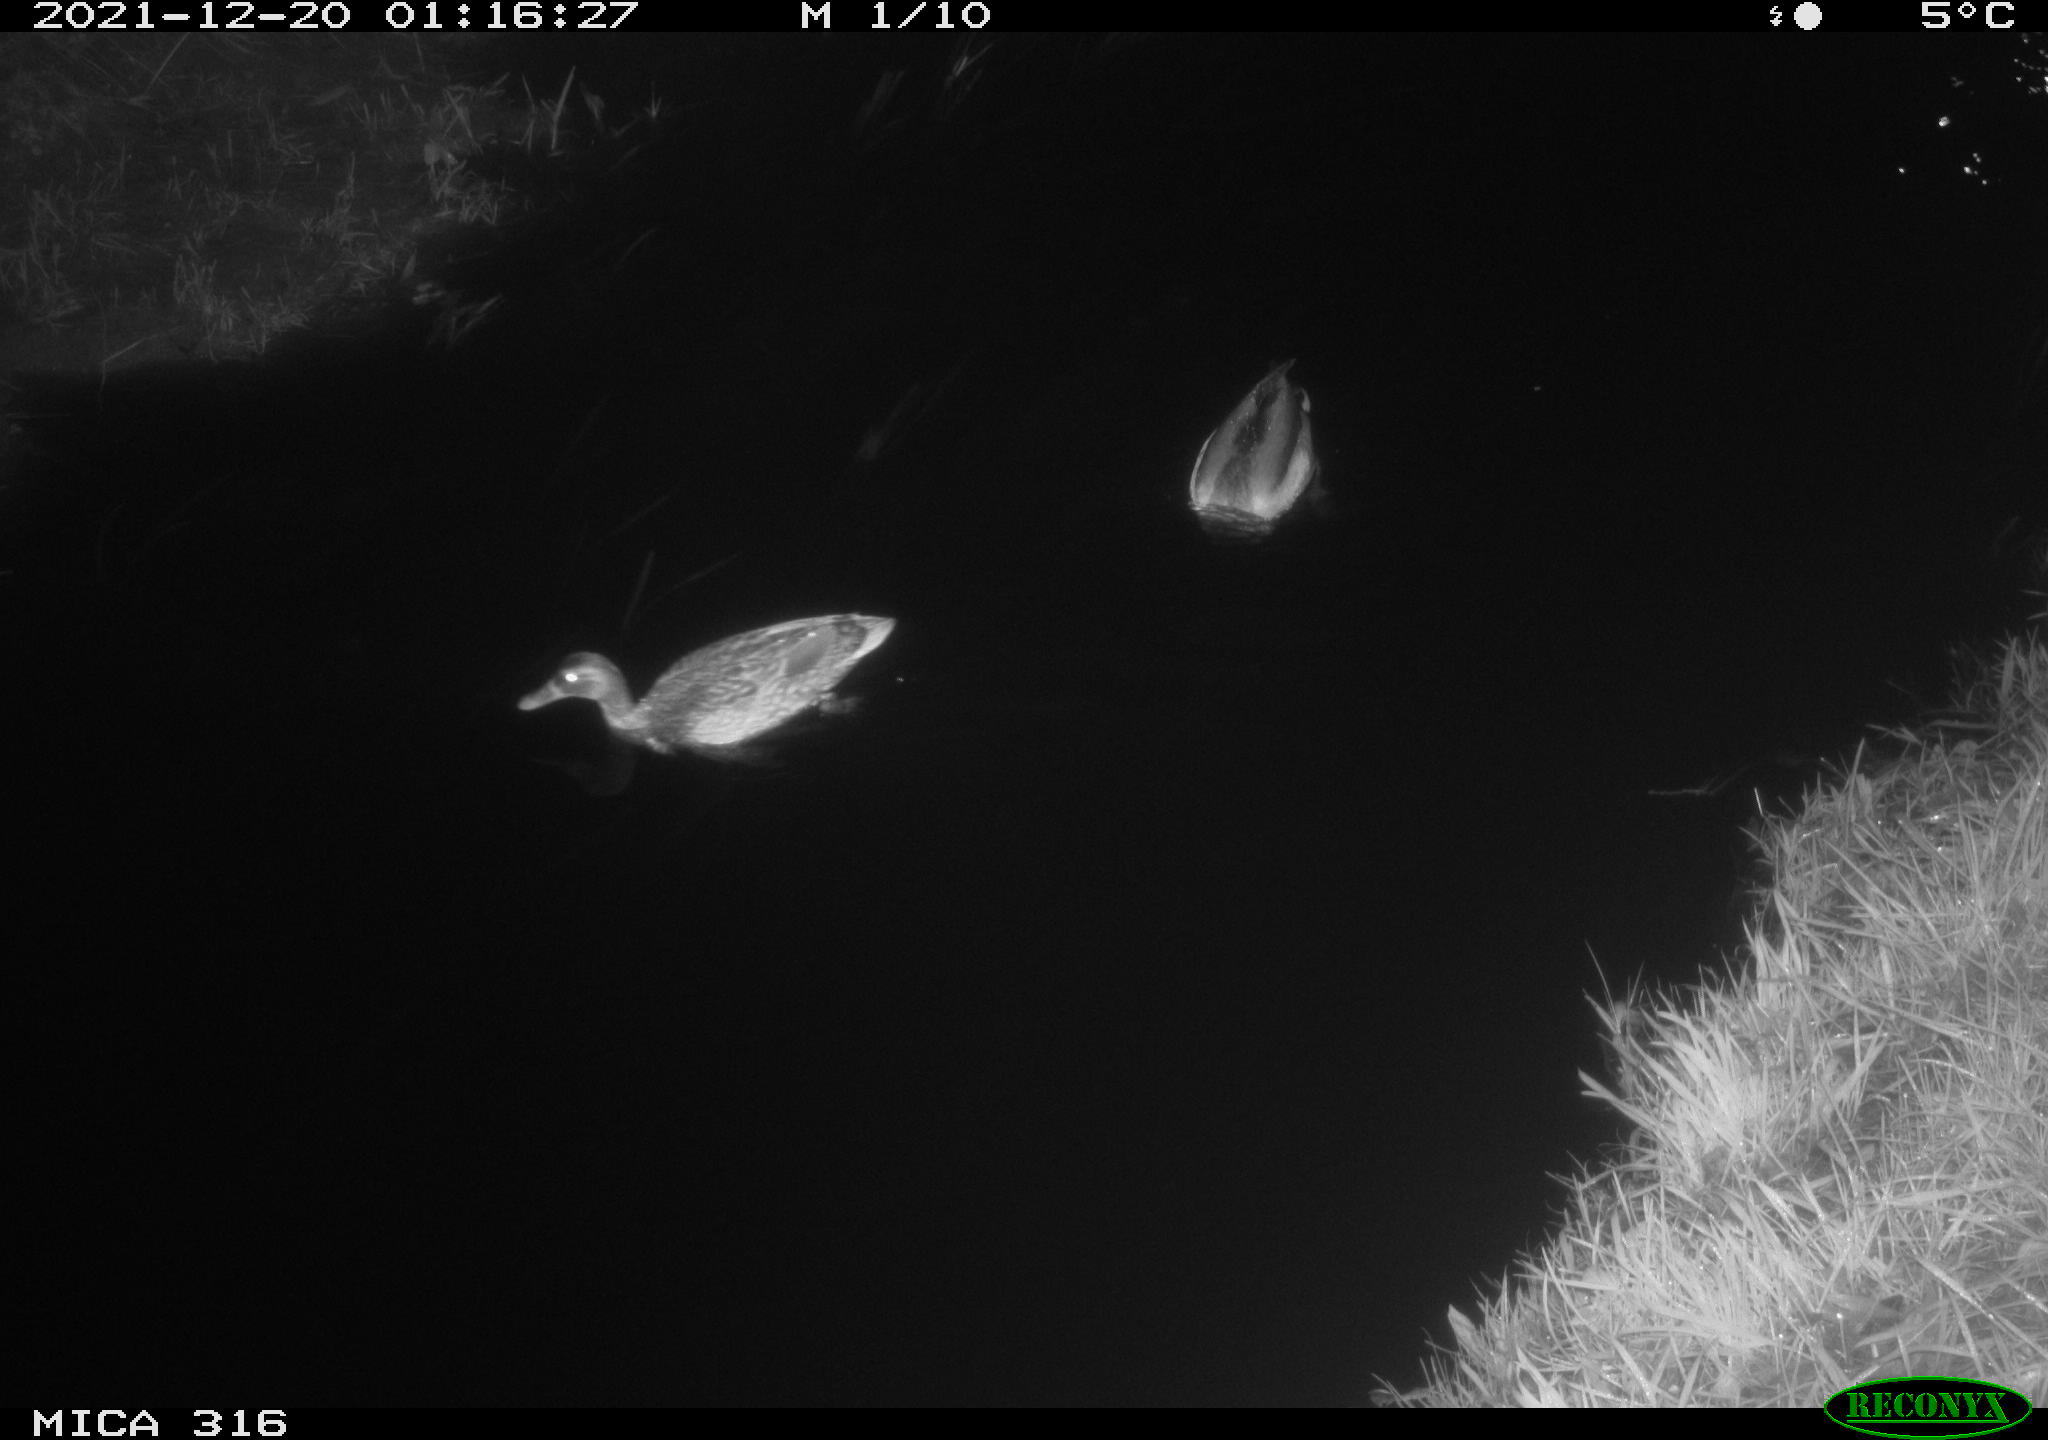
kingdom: Animalia
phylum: Chordata
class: Aves
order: Anseriformes
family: Anatidae
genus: Anas
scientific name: Anas
